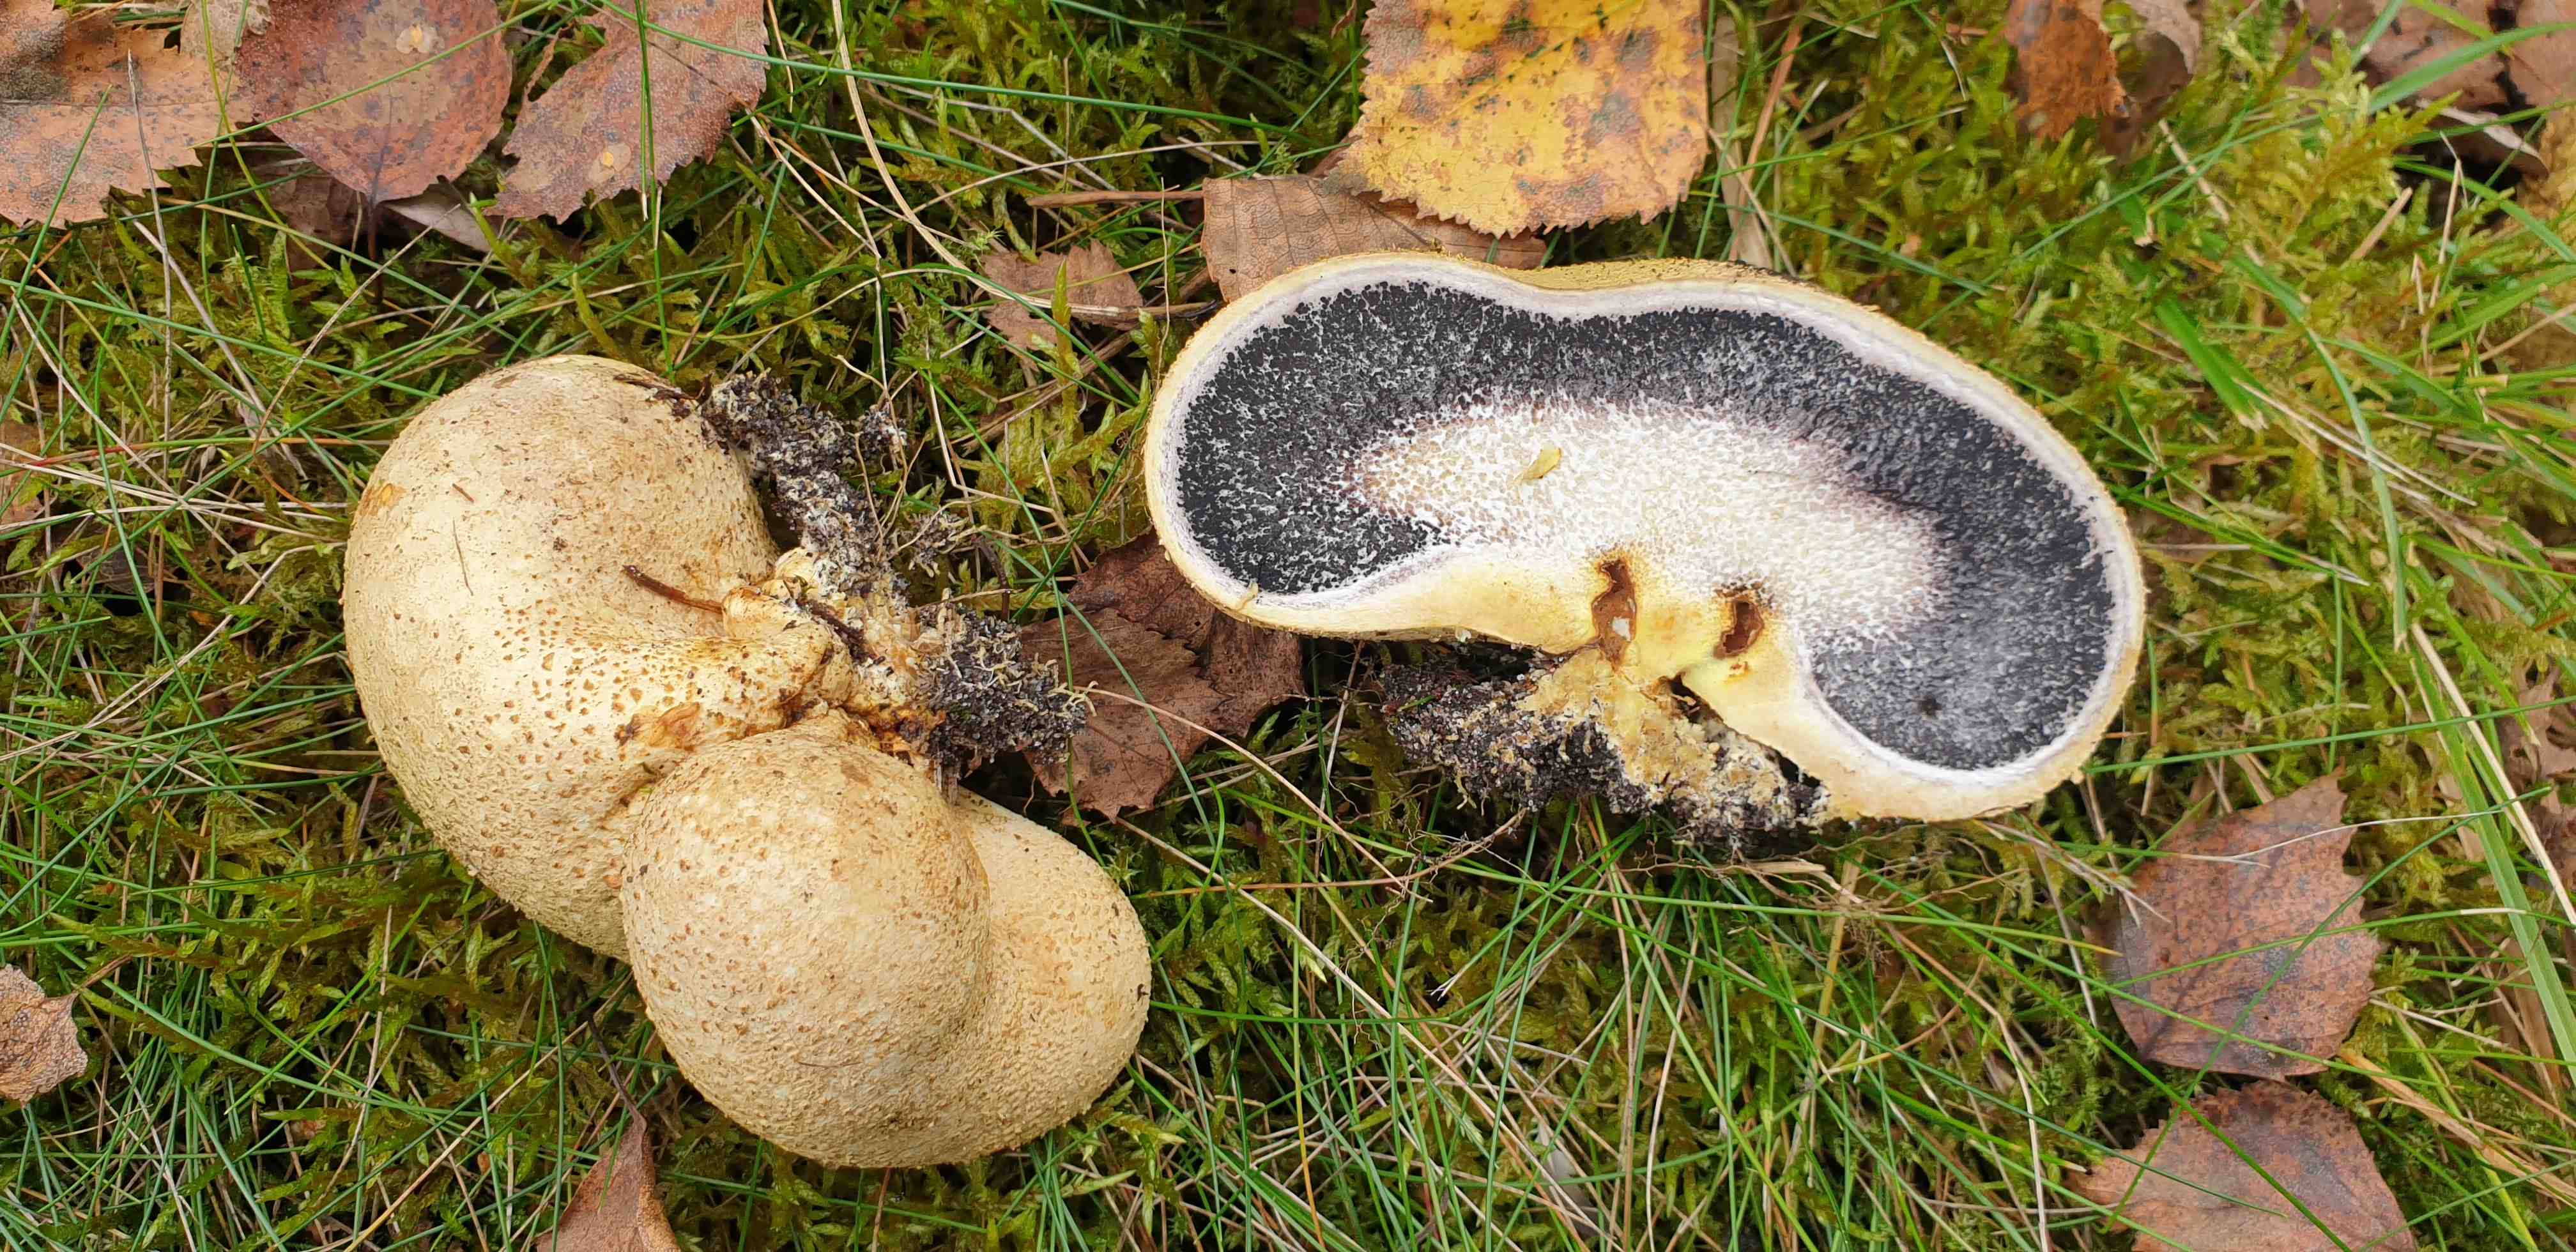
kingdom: Fungi
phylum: Basidiomycota
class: Agaricomycetes
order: Boletales
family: Sclerodermataceae
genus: Scleroderma
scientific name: Scleroderma citrinum
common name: almindelig bruskbold
